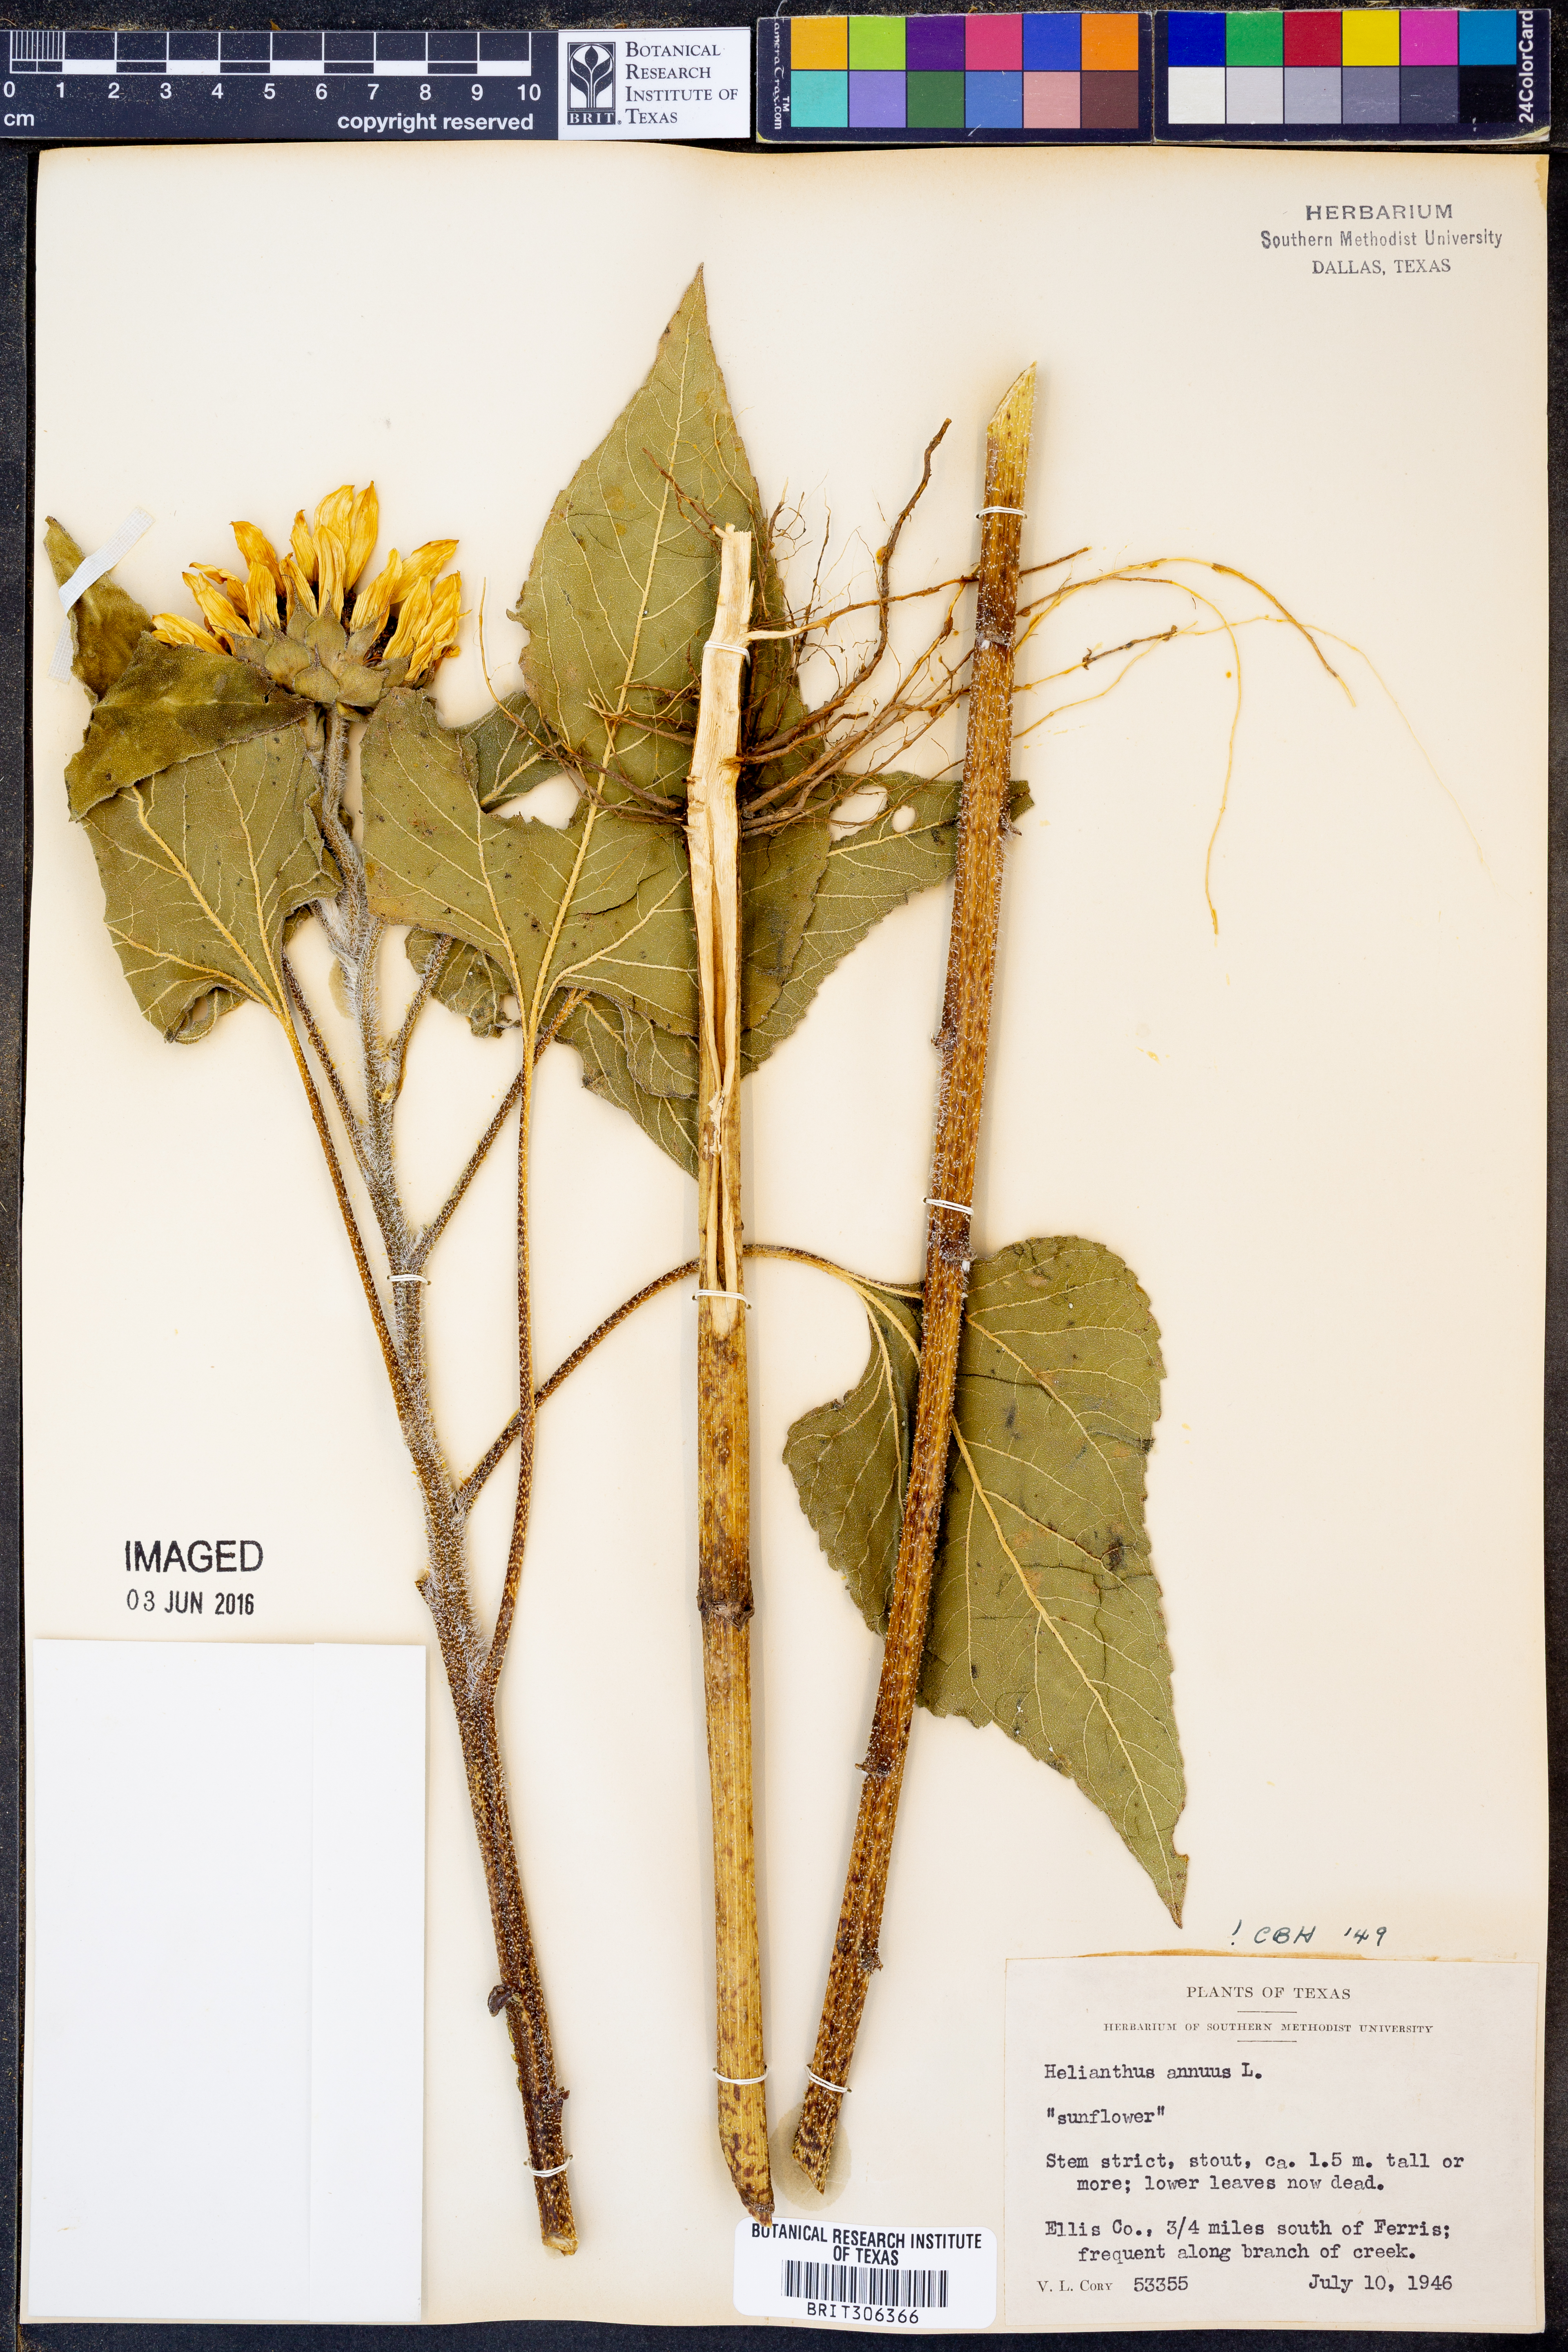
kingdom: Plantae
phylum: Tracheophyta
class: Magnoliopsida
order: Asterales
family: Asteraceae
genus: Helianthus
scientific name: Helianthus annuus
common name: Sunflower
